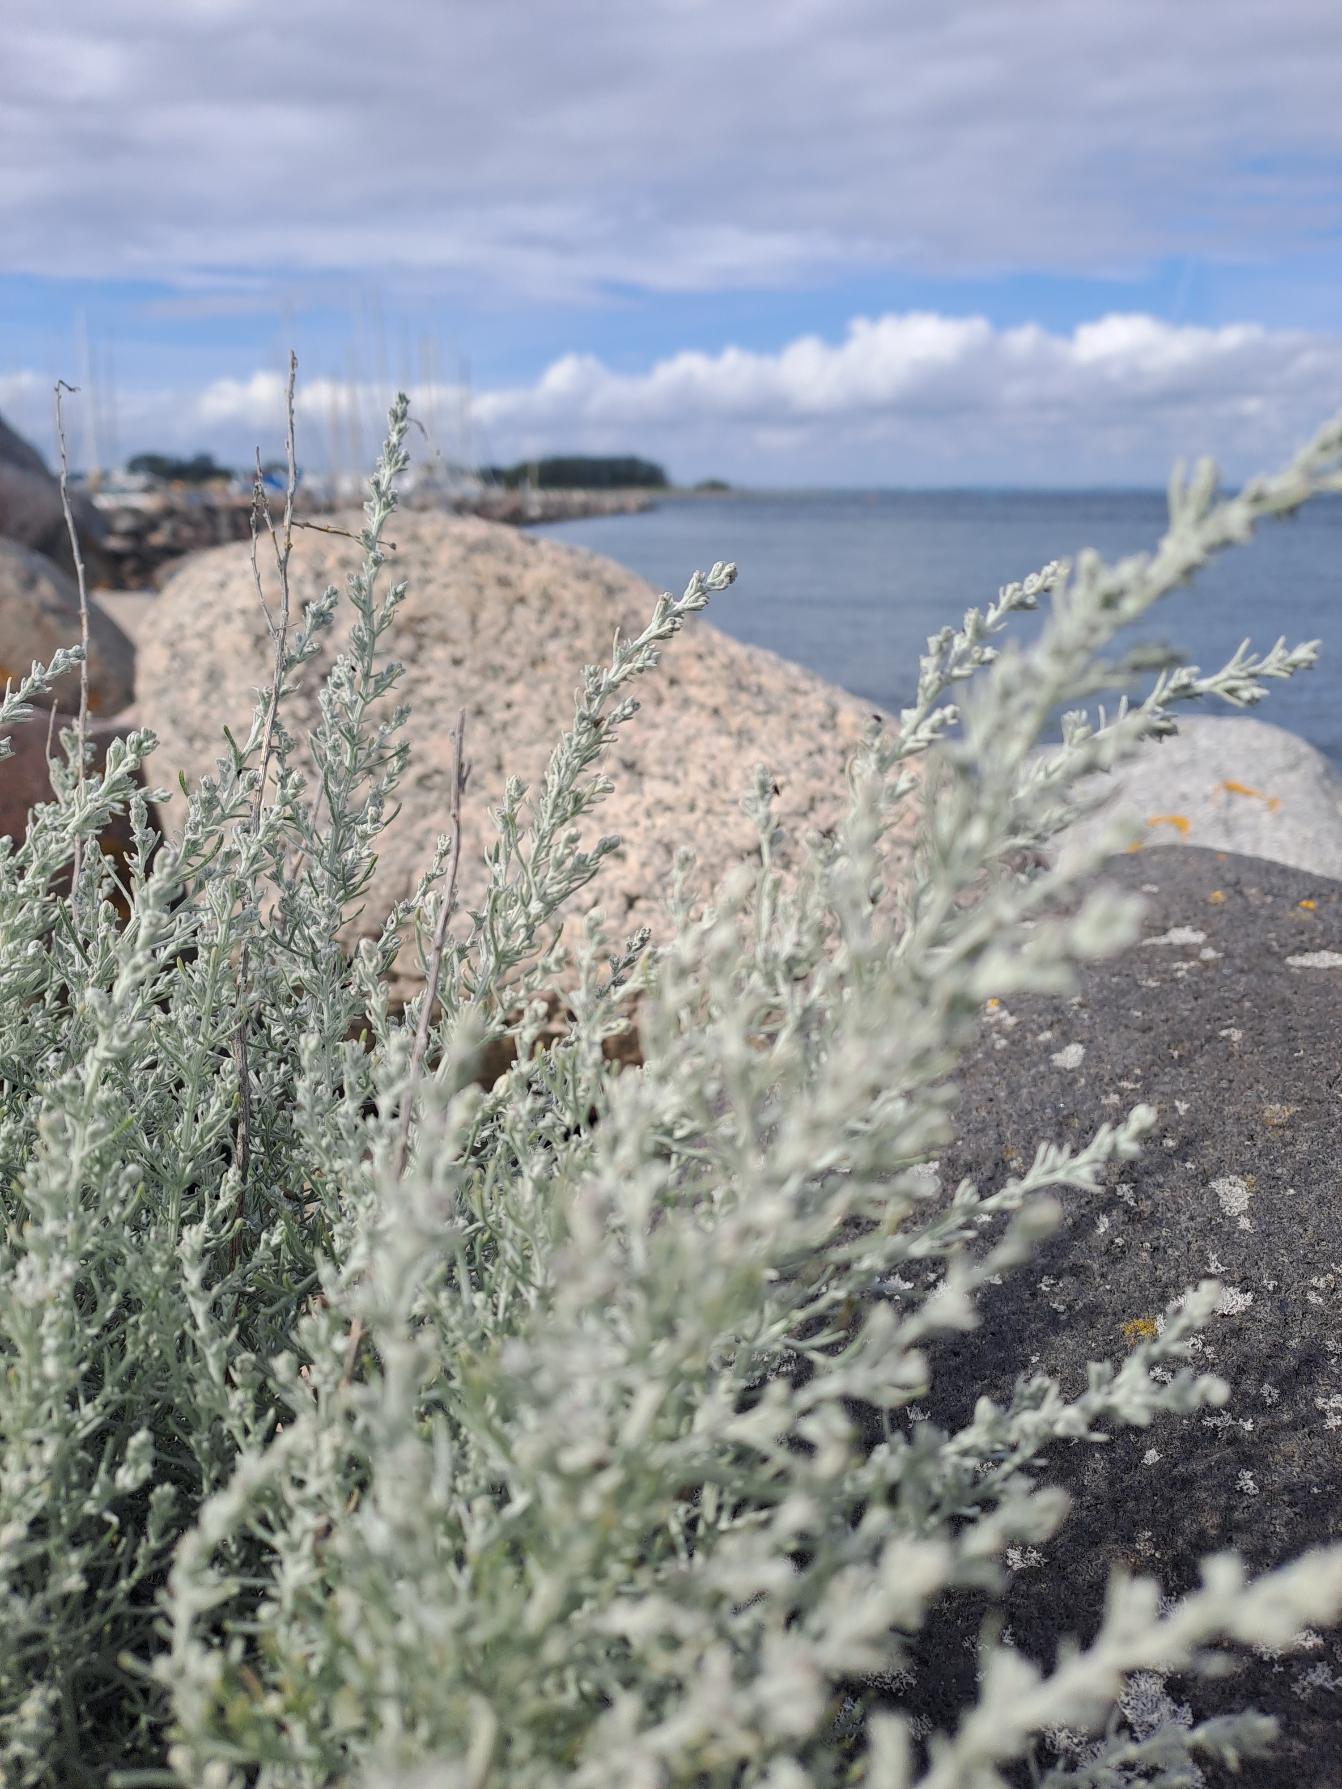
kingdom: Plantae
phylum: Tracheophyta
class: Magnoliopsida
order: Asterales
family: Asteraceae
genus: Artemisia
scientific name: Artemisia maritima
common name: Strandmalurt
